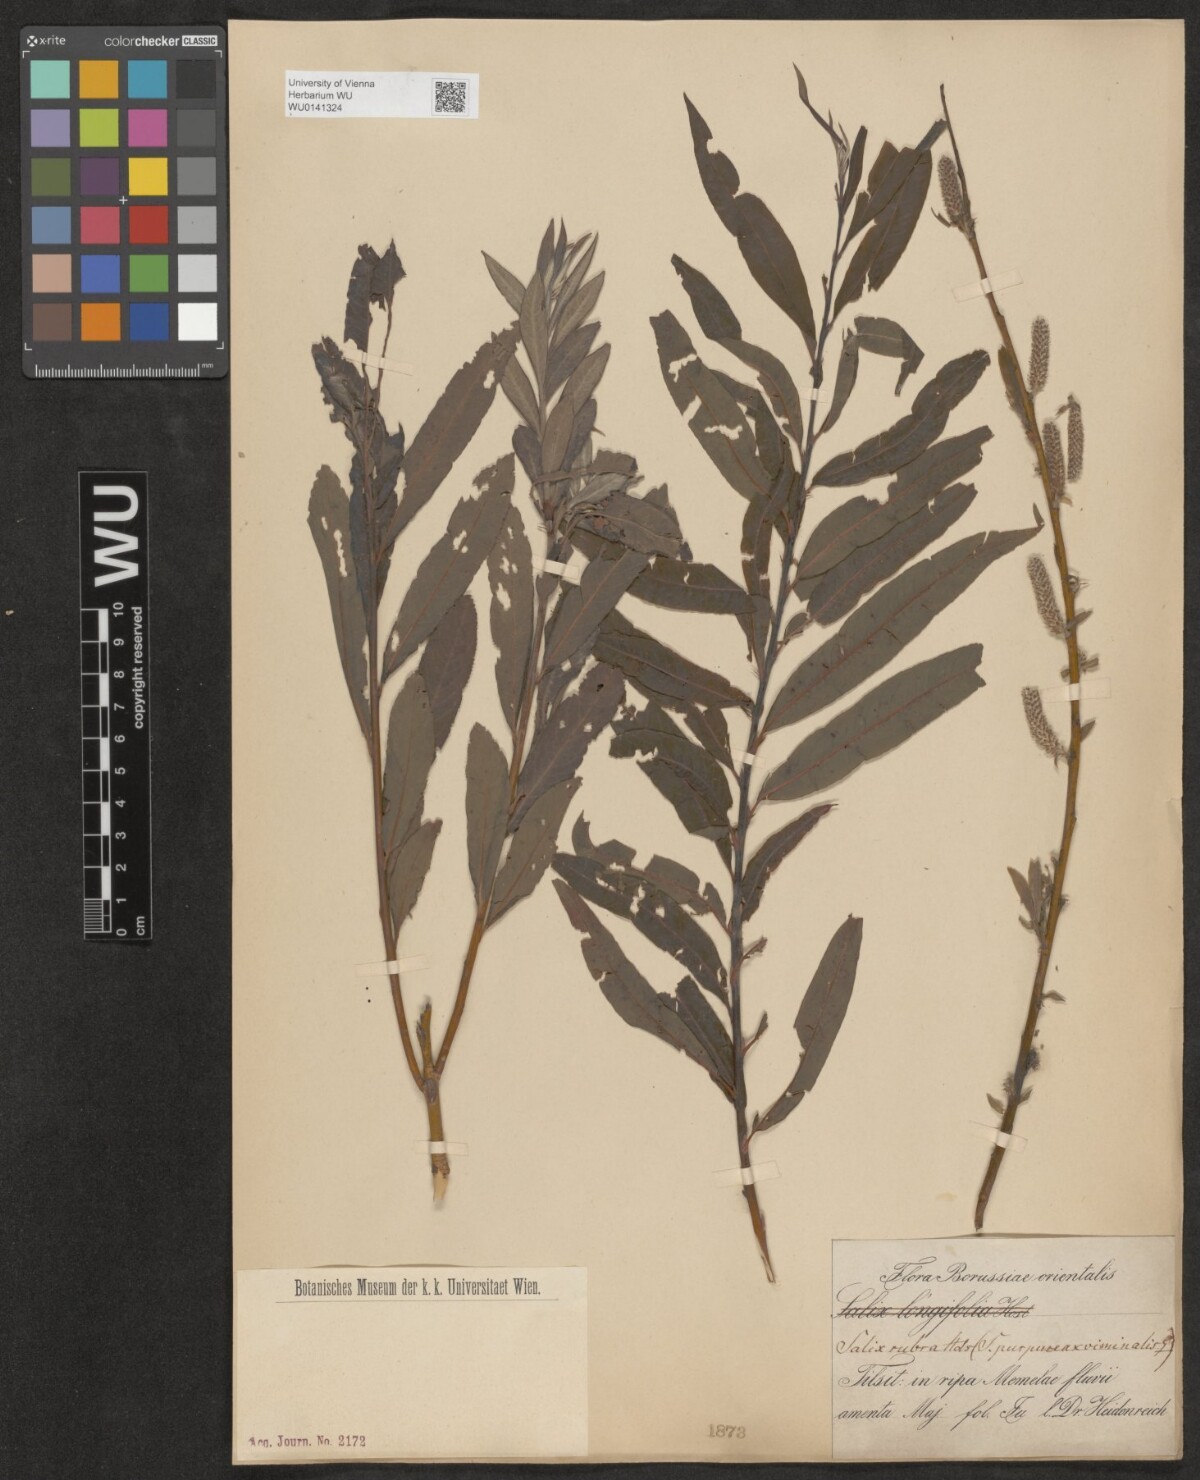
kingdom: Plantae
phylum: Tracheophyta
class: Magnoliopsida
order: Malpighiales
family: Salicaceae
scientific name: Salicaceae
